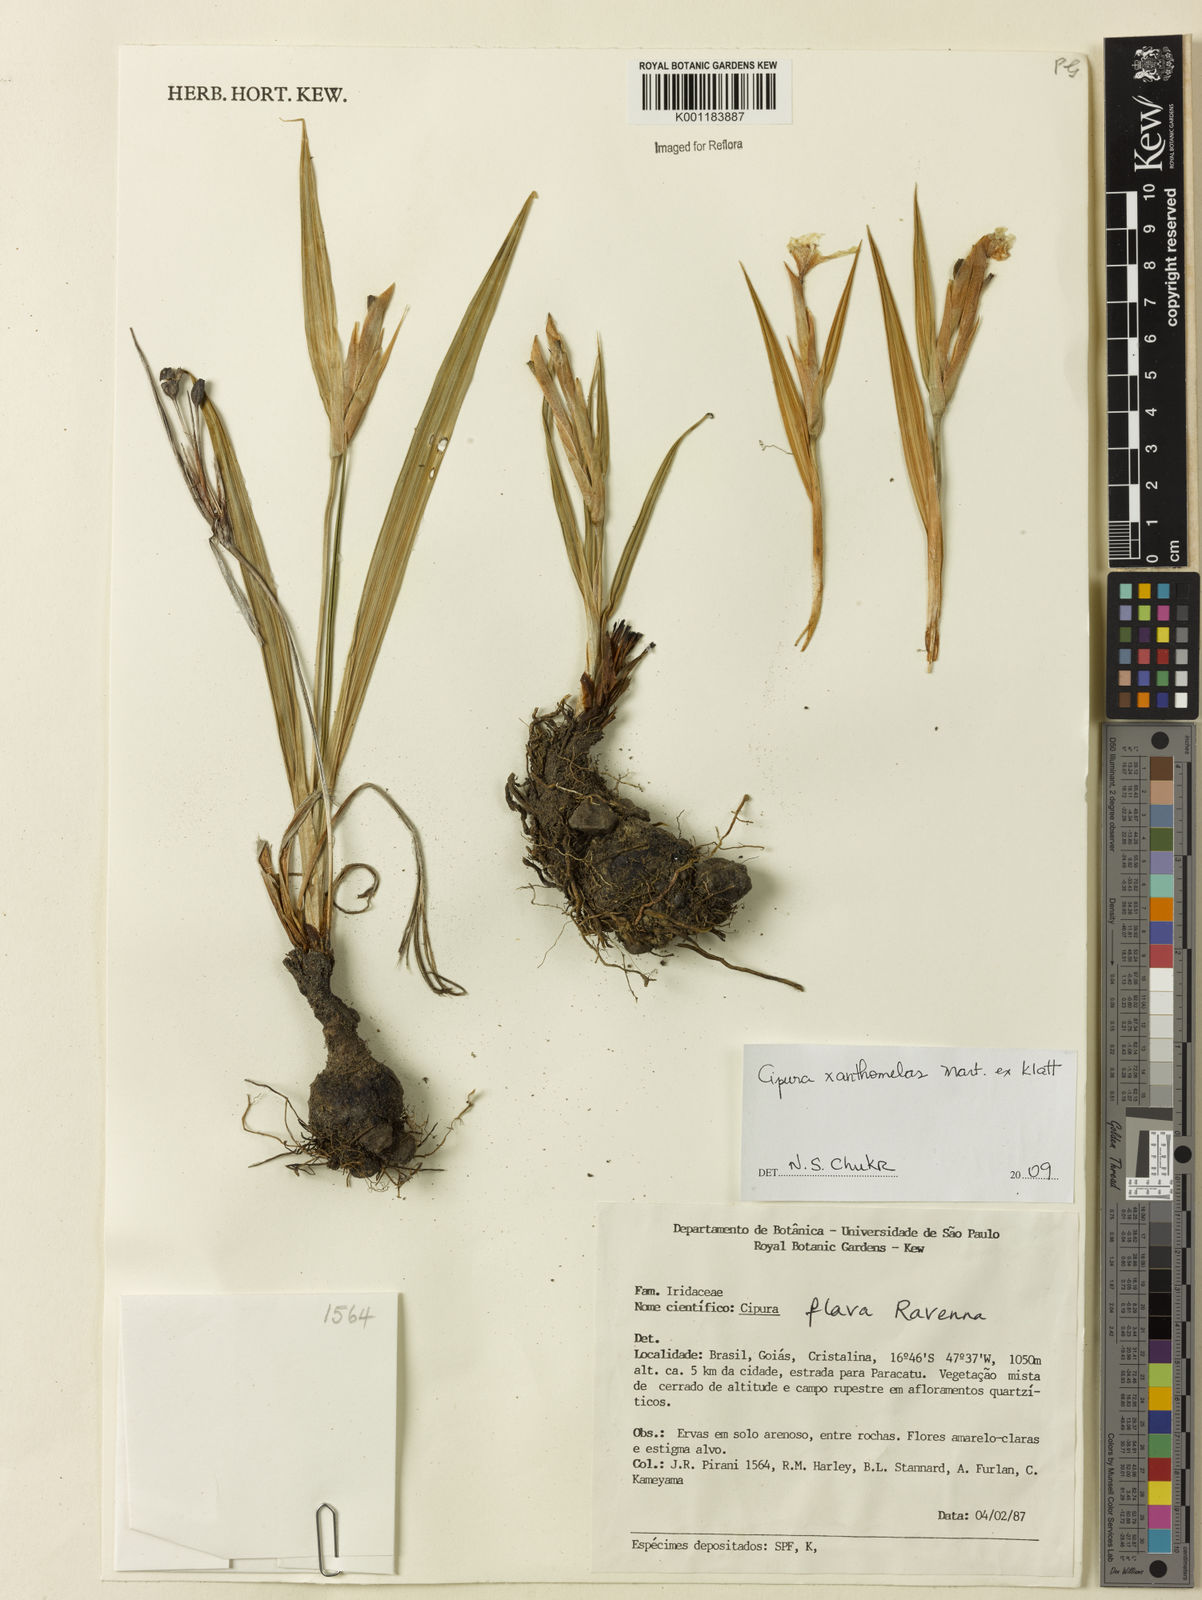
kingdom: Plantae
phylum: Tracheophyta
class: Liliopsida
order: Asparagales
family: Iridaceae
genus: Cipura
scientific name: Cipura xanthomelas
